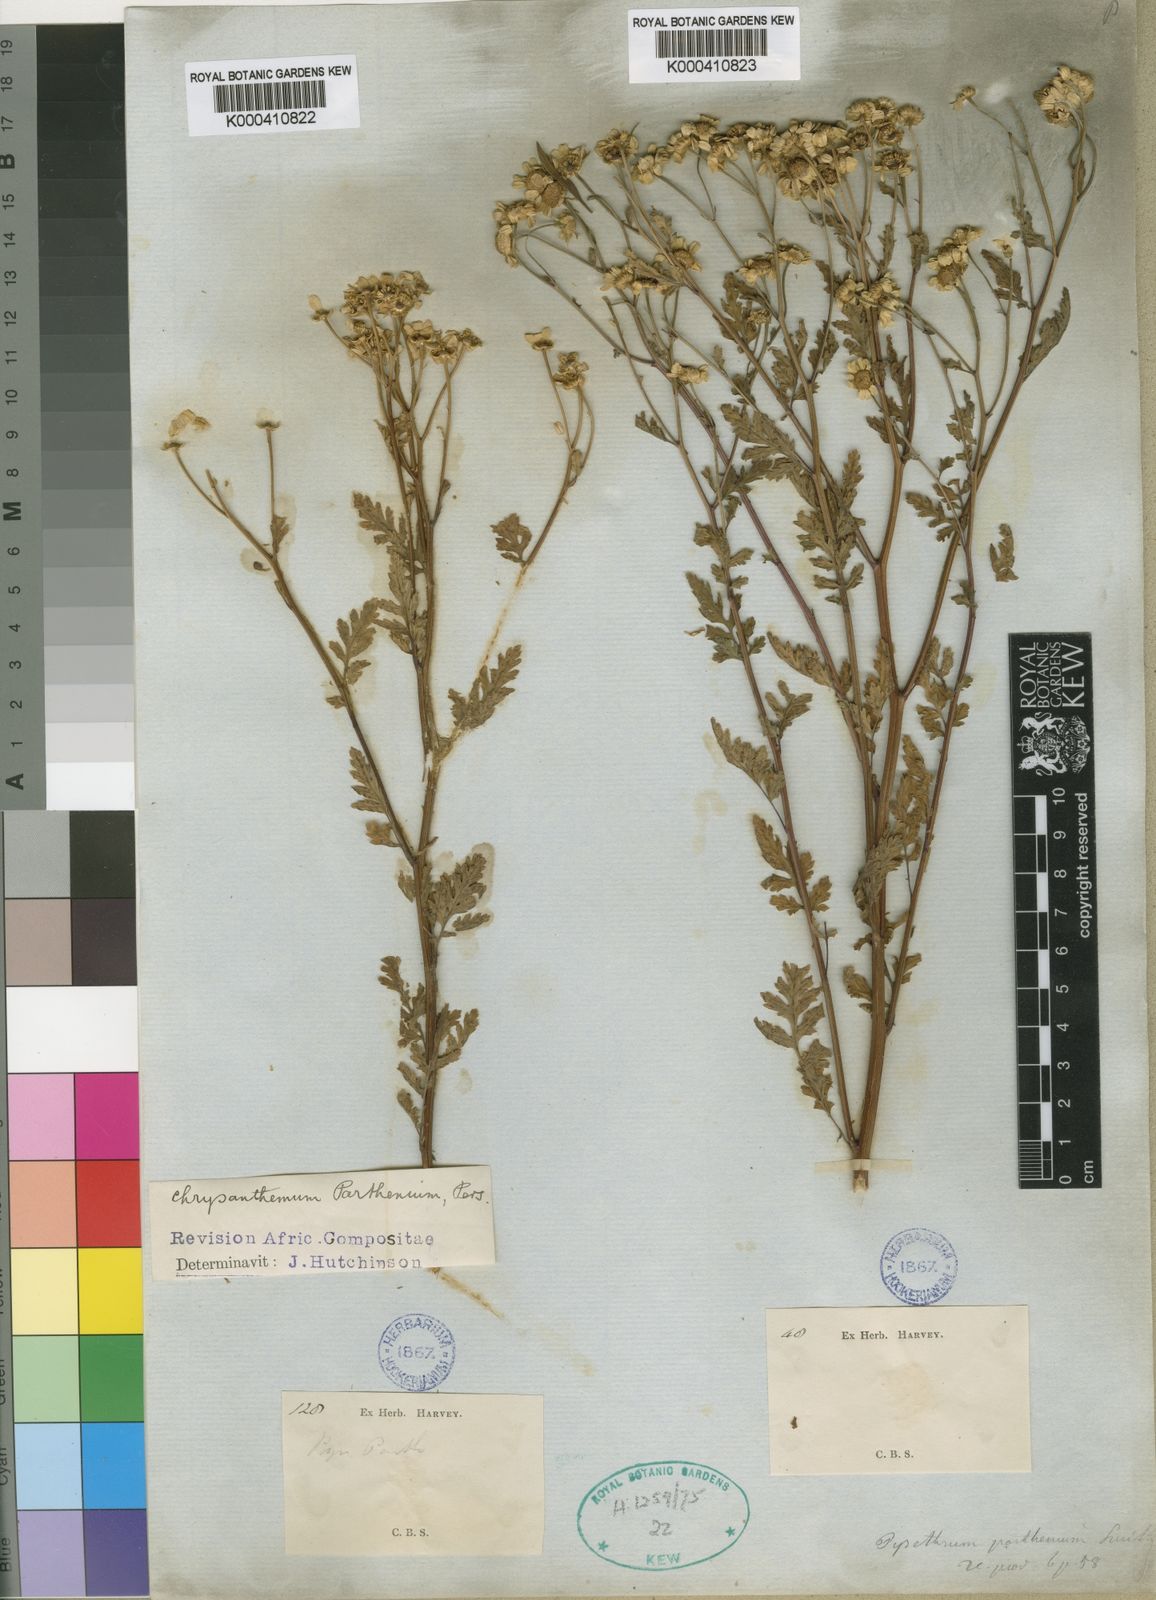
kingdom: Plantae
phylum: Tracheophyta
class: Magnoliopsida
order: Asterales
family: Asteraceae
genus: Tanacetum
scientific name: Tanacetum parthenium
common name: Feverfew
